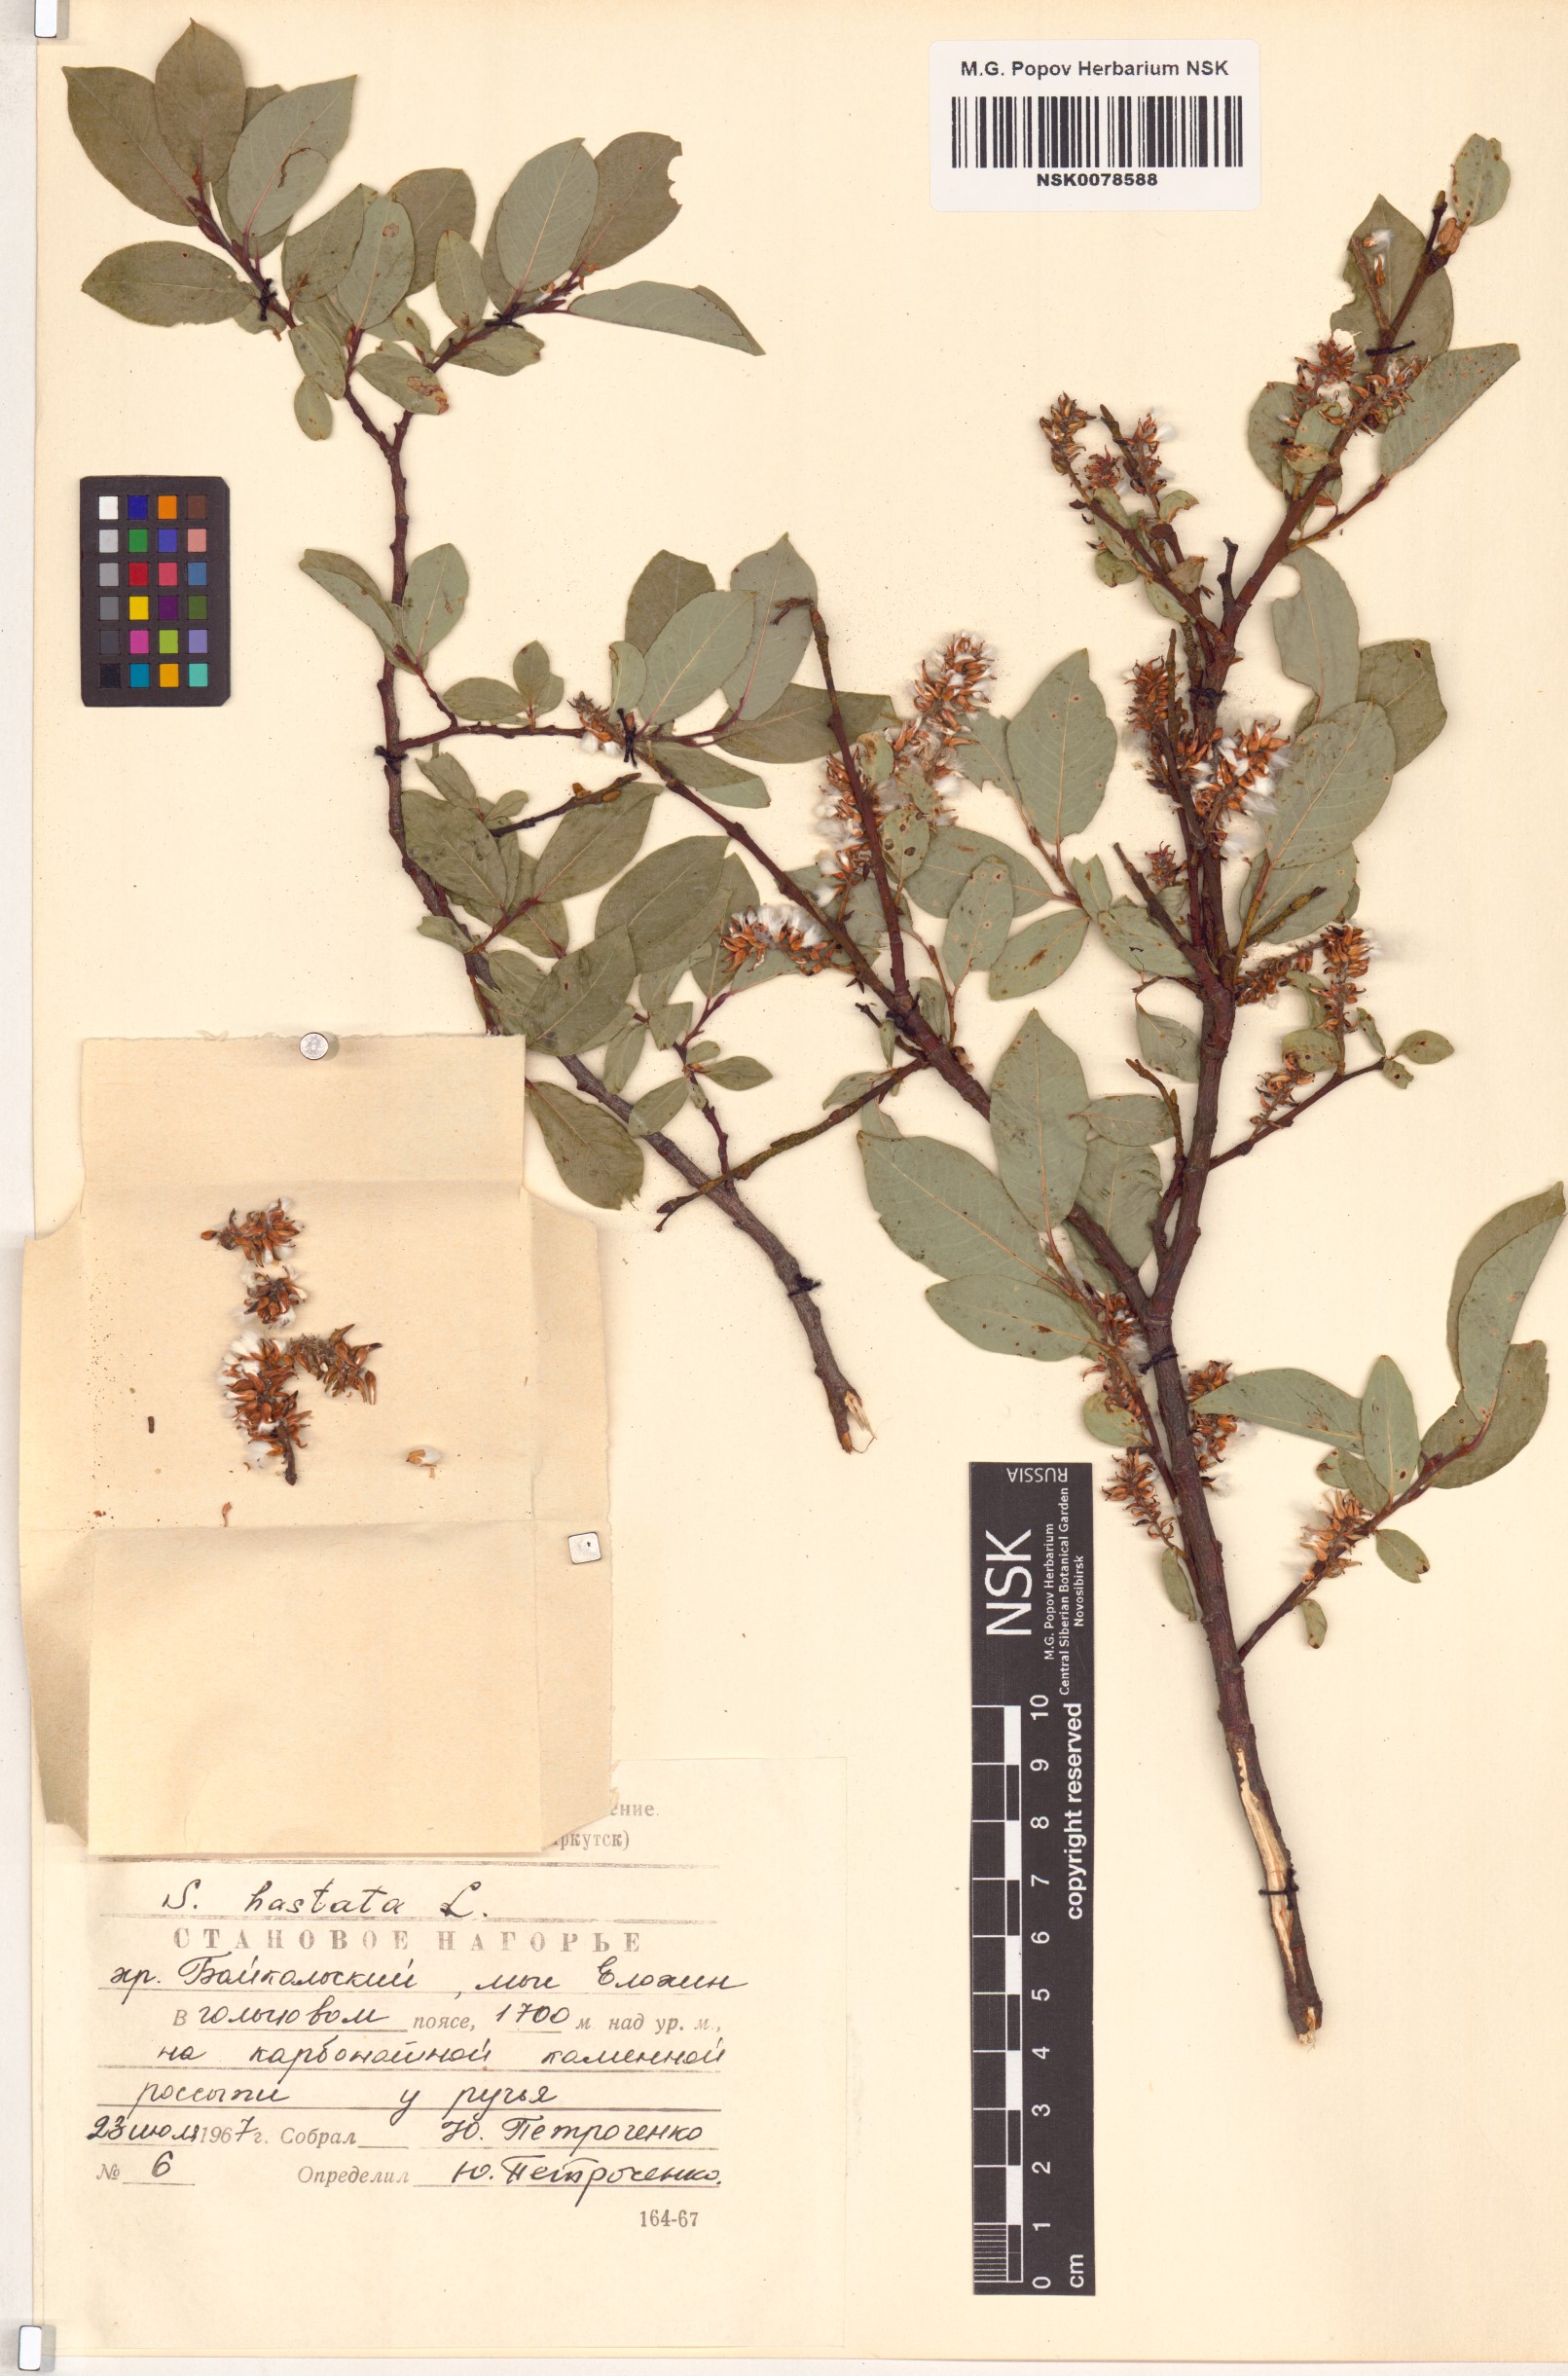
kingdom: Plantae
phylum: Tracheophyta
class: Magnoliopsida
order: Malpighiales
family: Salicaceae
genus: Salix
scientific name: Salix hastata
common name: Halberd willow
